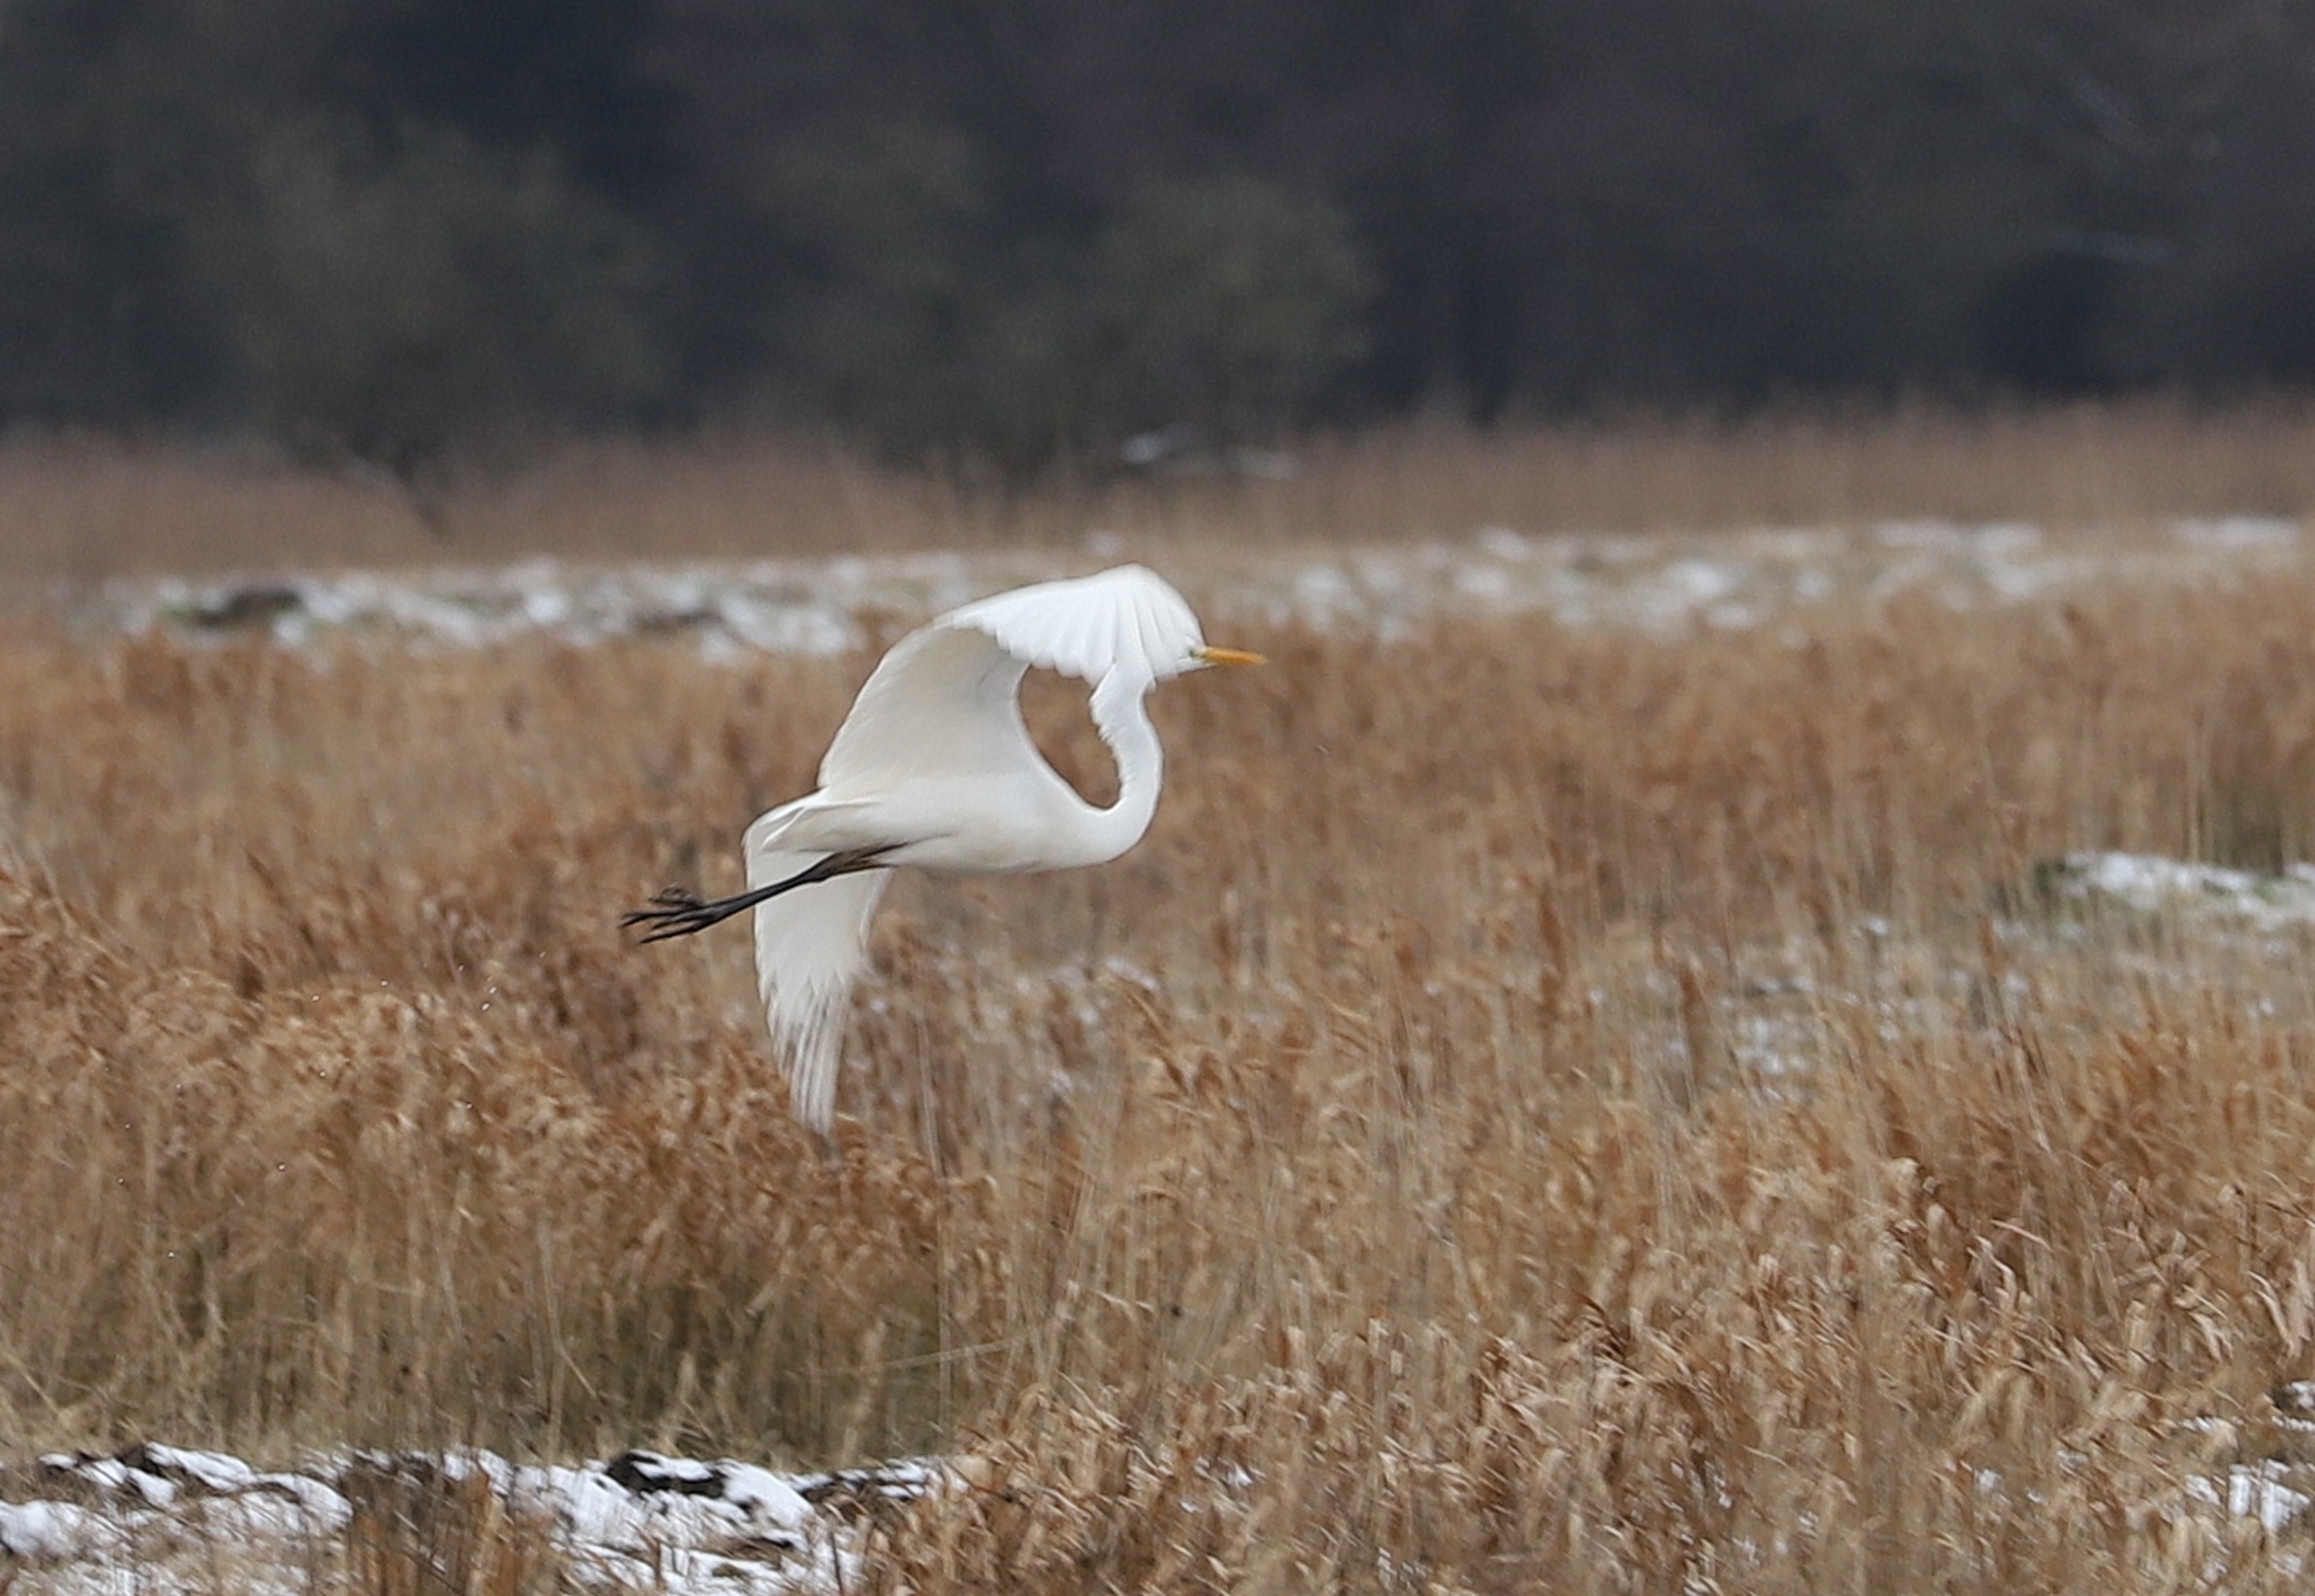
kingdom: Animalia
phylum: Chordata
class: Aves
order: Pelecaniformes
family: Ardeidae
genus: Ardea
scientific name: Ardea alba
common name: Sølvhejre
